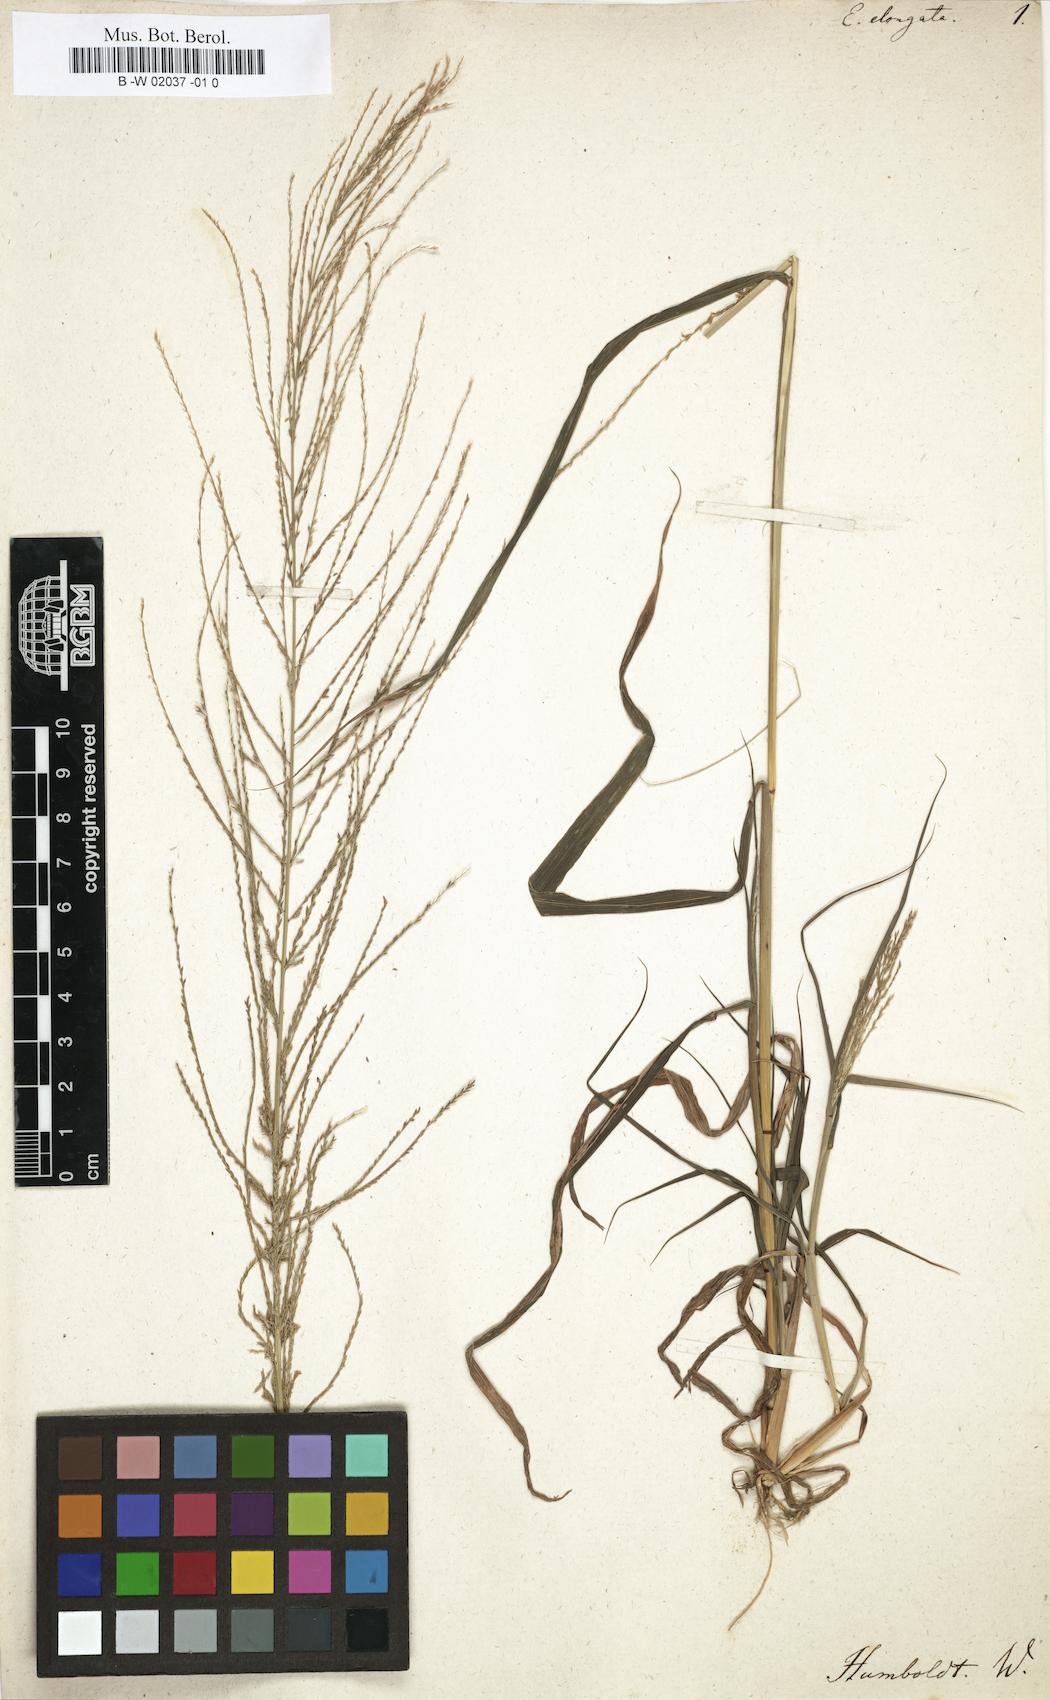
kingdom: Plantae
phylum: Tracheophyta
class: Liliopsida
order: Poales
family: Poaceae
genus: Leptochloa
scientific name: Leptochloa mucronata
